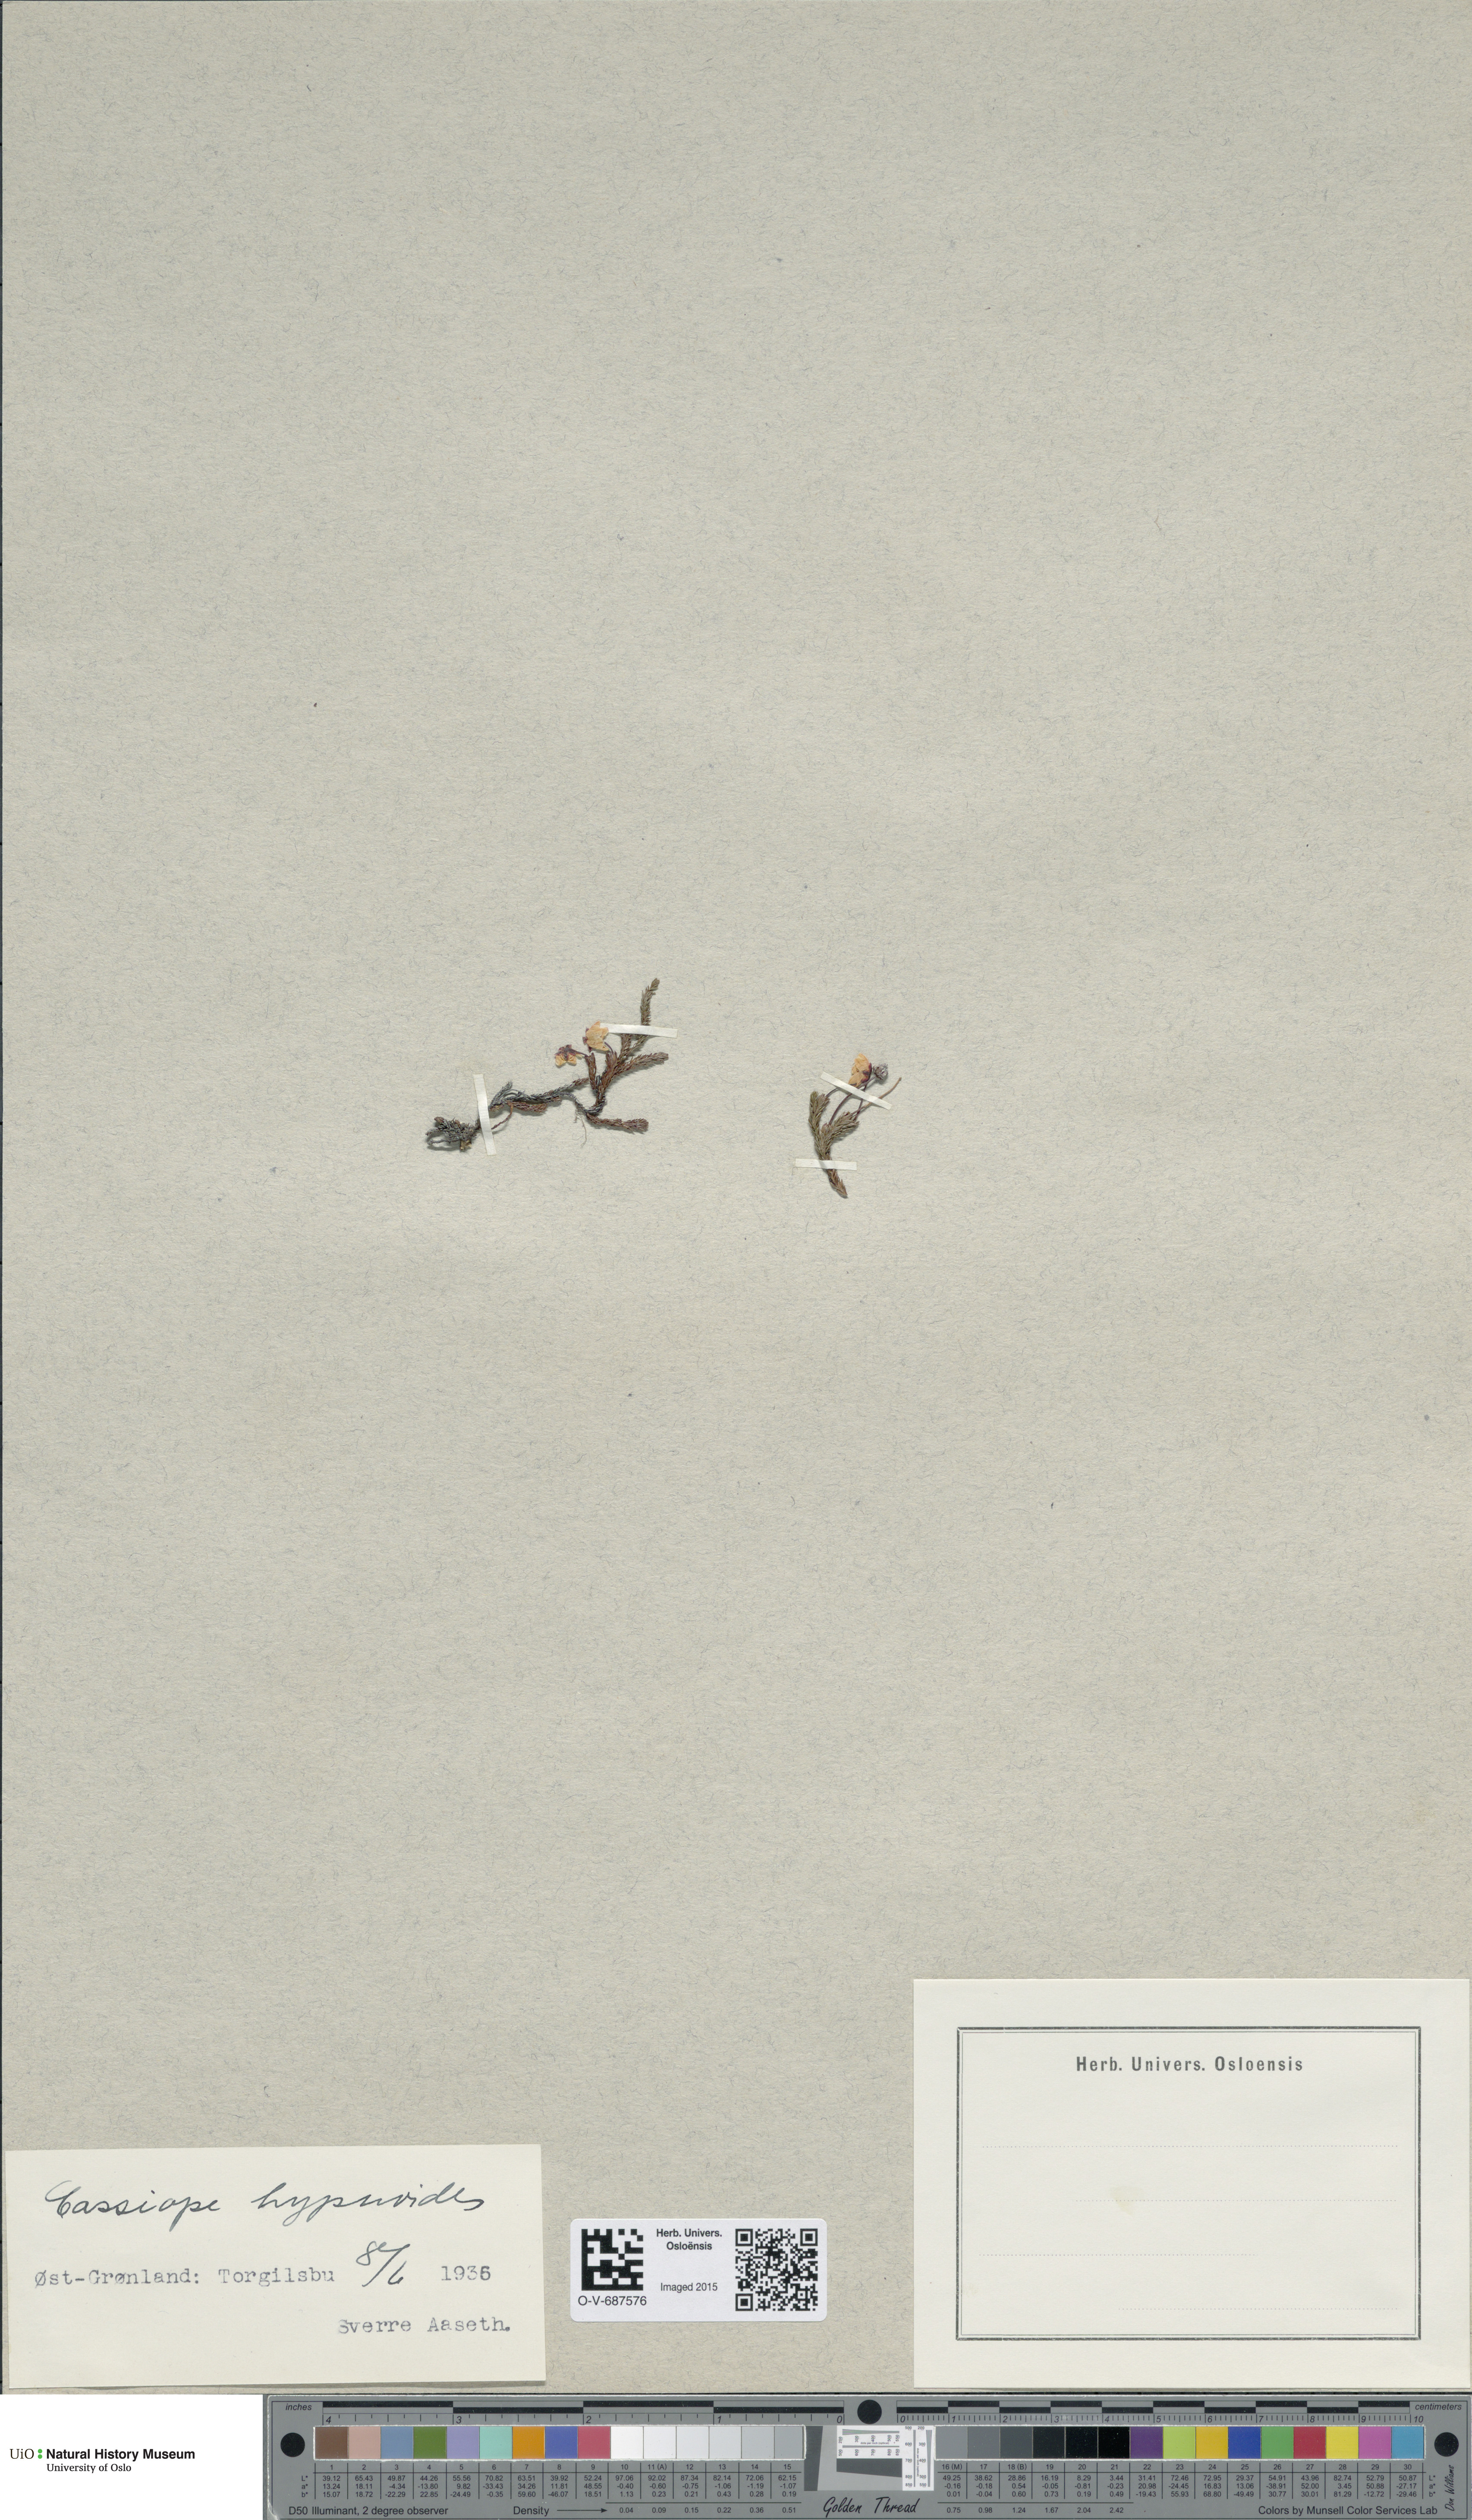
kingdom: Plantae
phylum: Tracheophyta
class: Magnoliopsida
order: Ericales
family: Ericaceae
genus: Harrimanella
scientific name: Harrimanella hypnoides
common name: Moss bell heather
